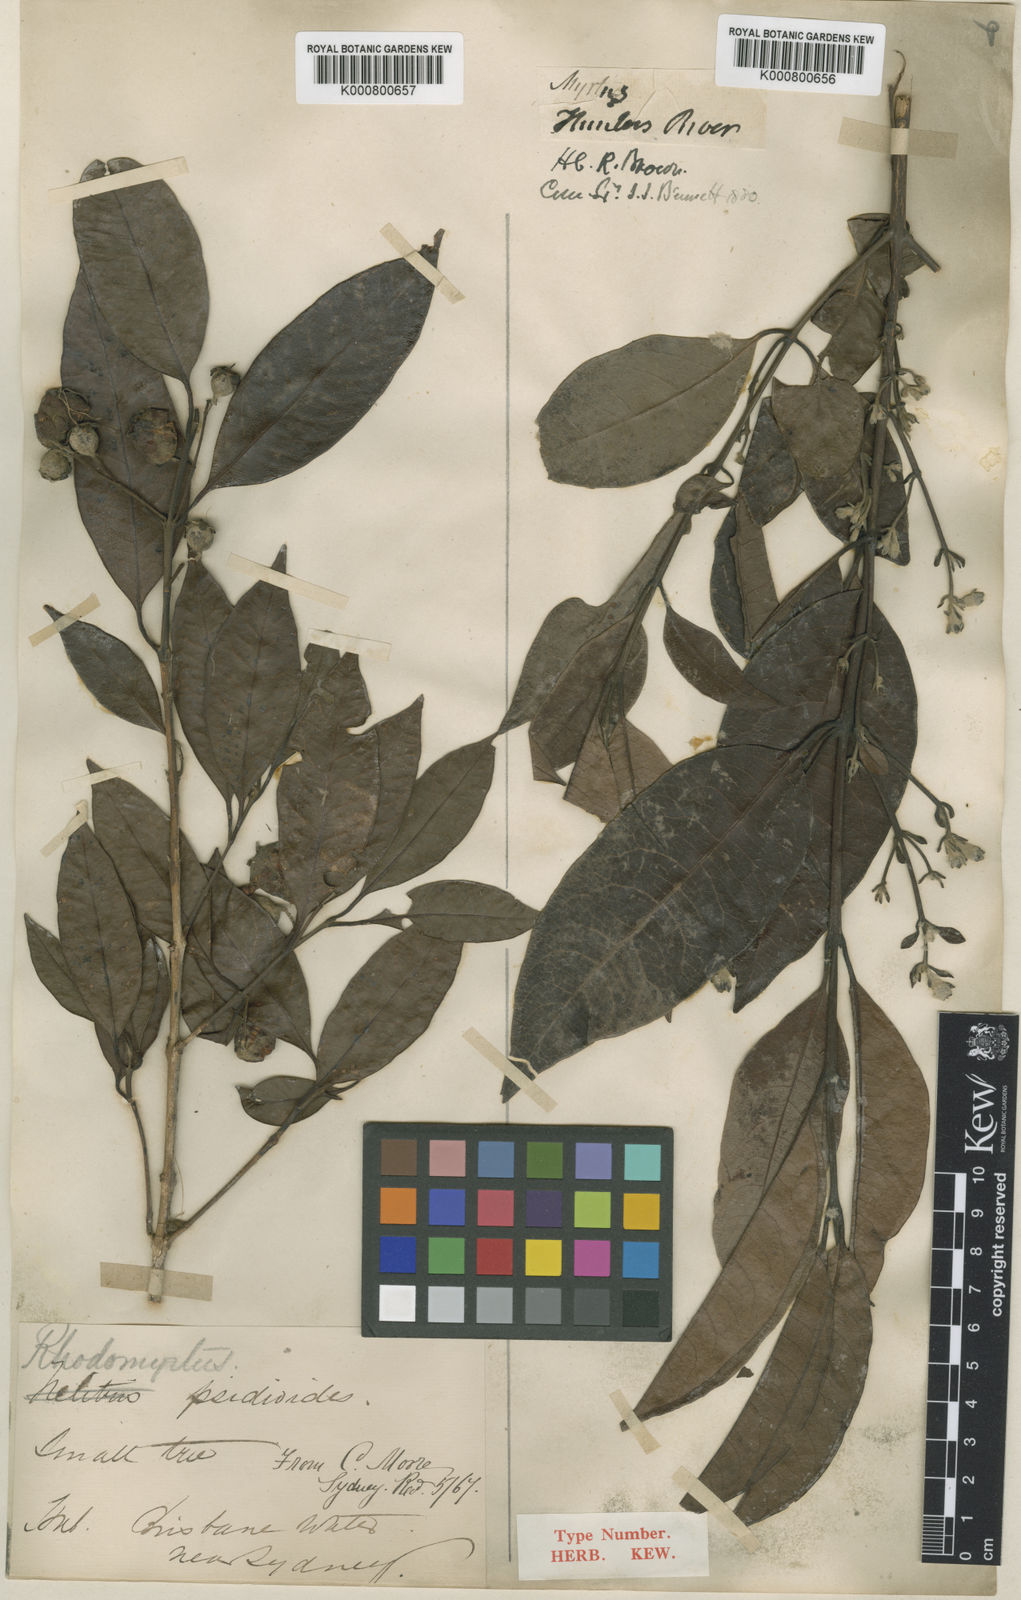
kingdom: Plantae
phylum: Tracheophyta
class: Magnoliopsida
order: Myrtales
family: Myrtaceae
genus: Rhodomyrtus
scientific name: Rhodomyrtus psidioides
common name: Native-guava
